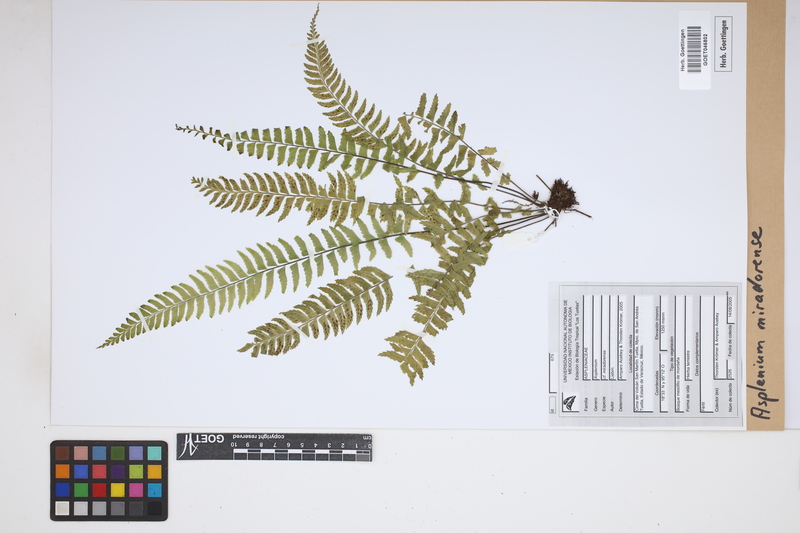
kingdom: Plantae
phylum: Tracheophyta
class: Polypodiopsida
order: Polypodiales
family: Aspleniaceae
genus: Asplenium
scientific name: Asplenium miradorense
